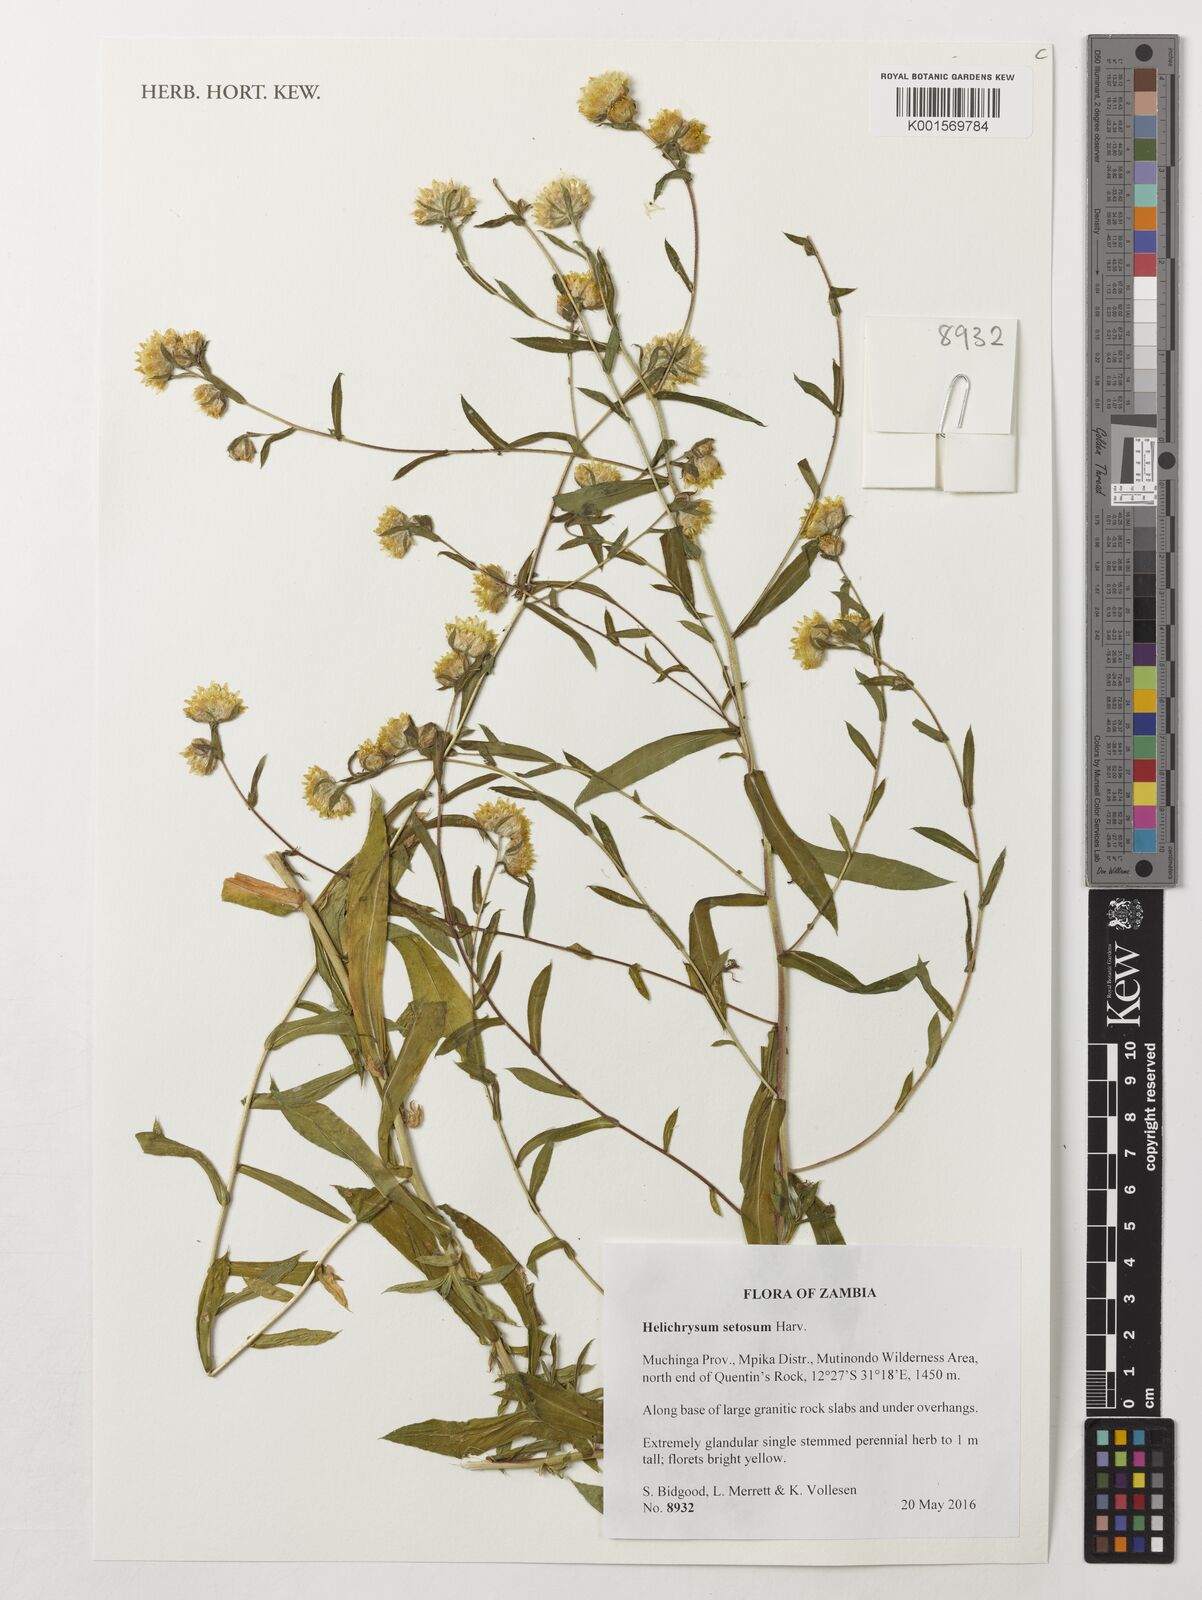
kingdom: Plantae
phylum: Tracheophyta
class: Magnoliopsida
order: Asterales
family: Asteraceae
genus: Helichrysum
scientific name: Helichrysum setosum
